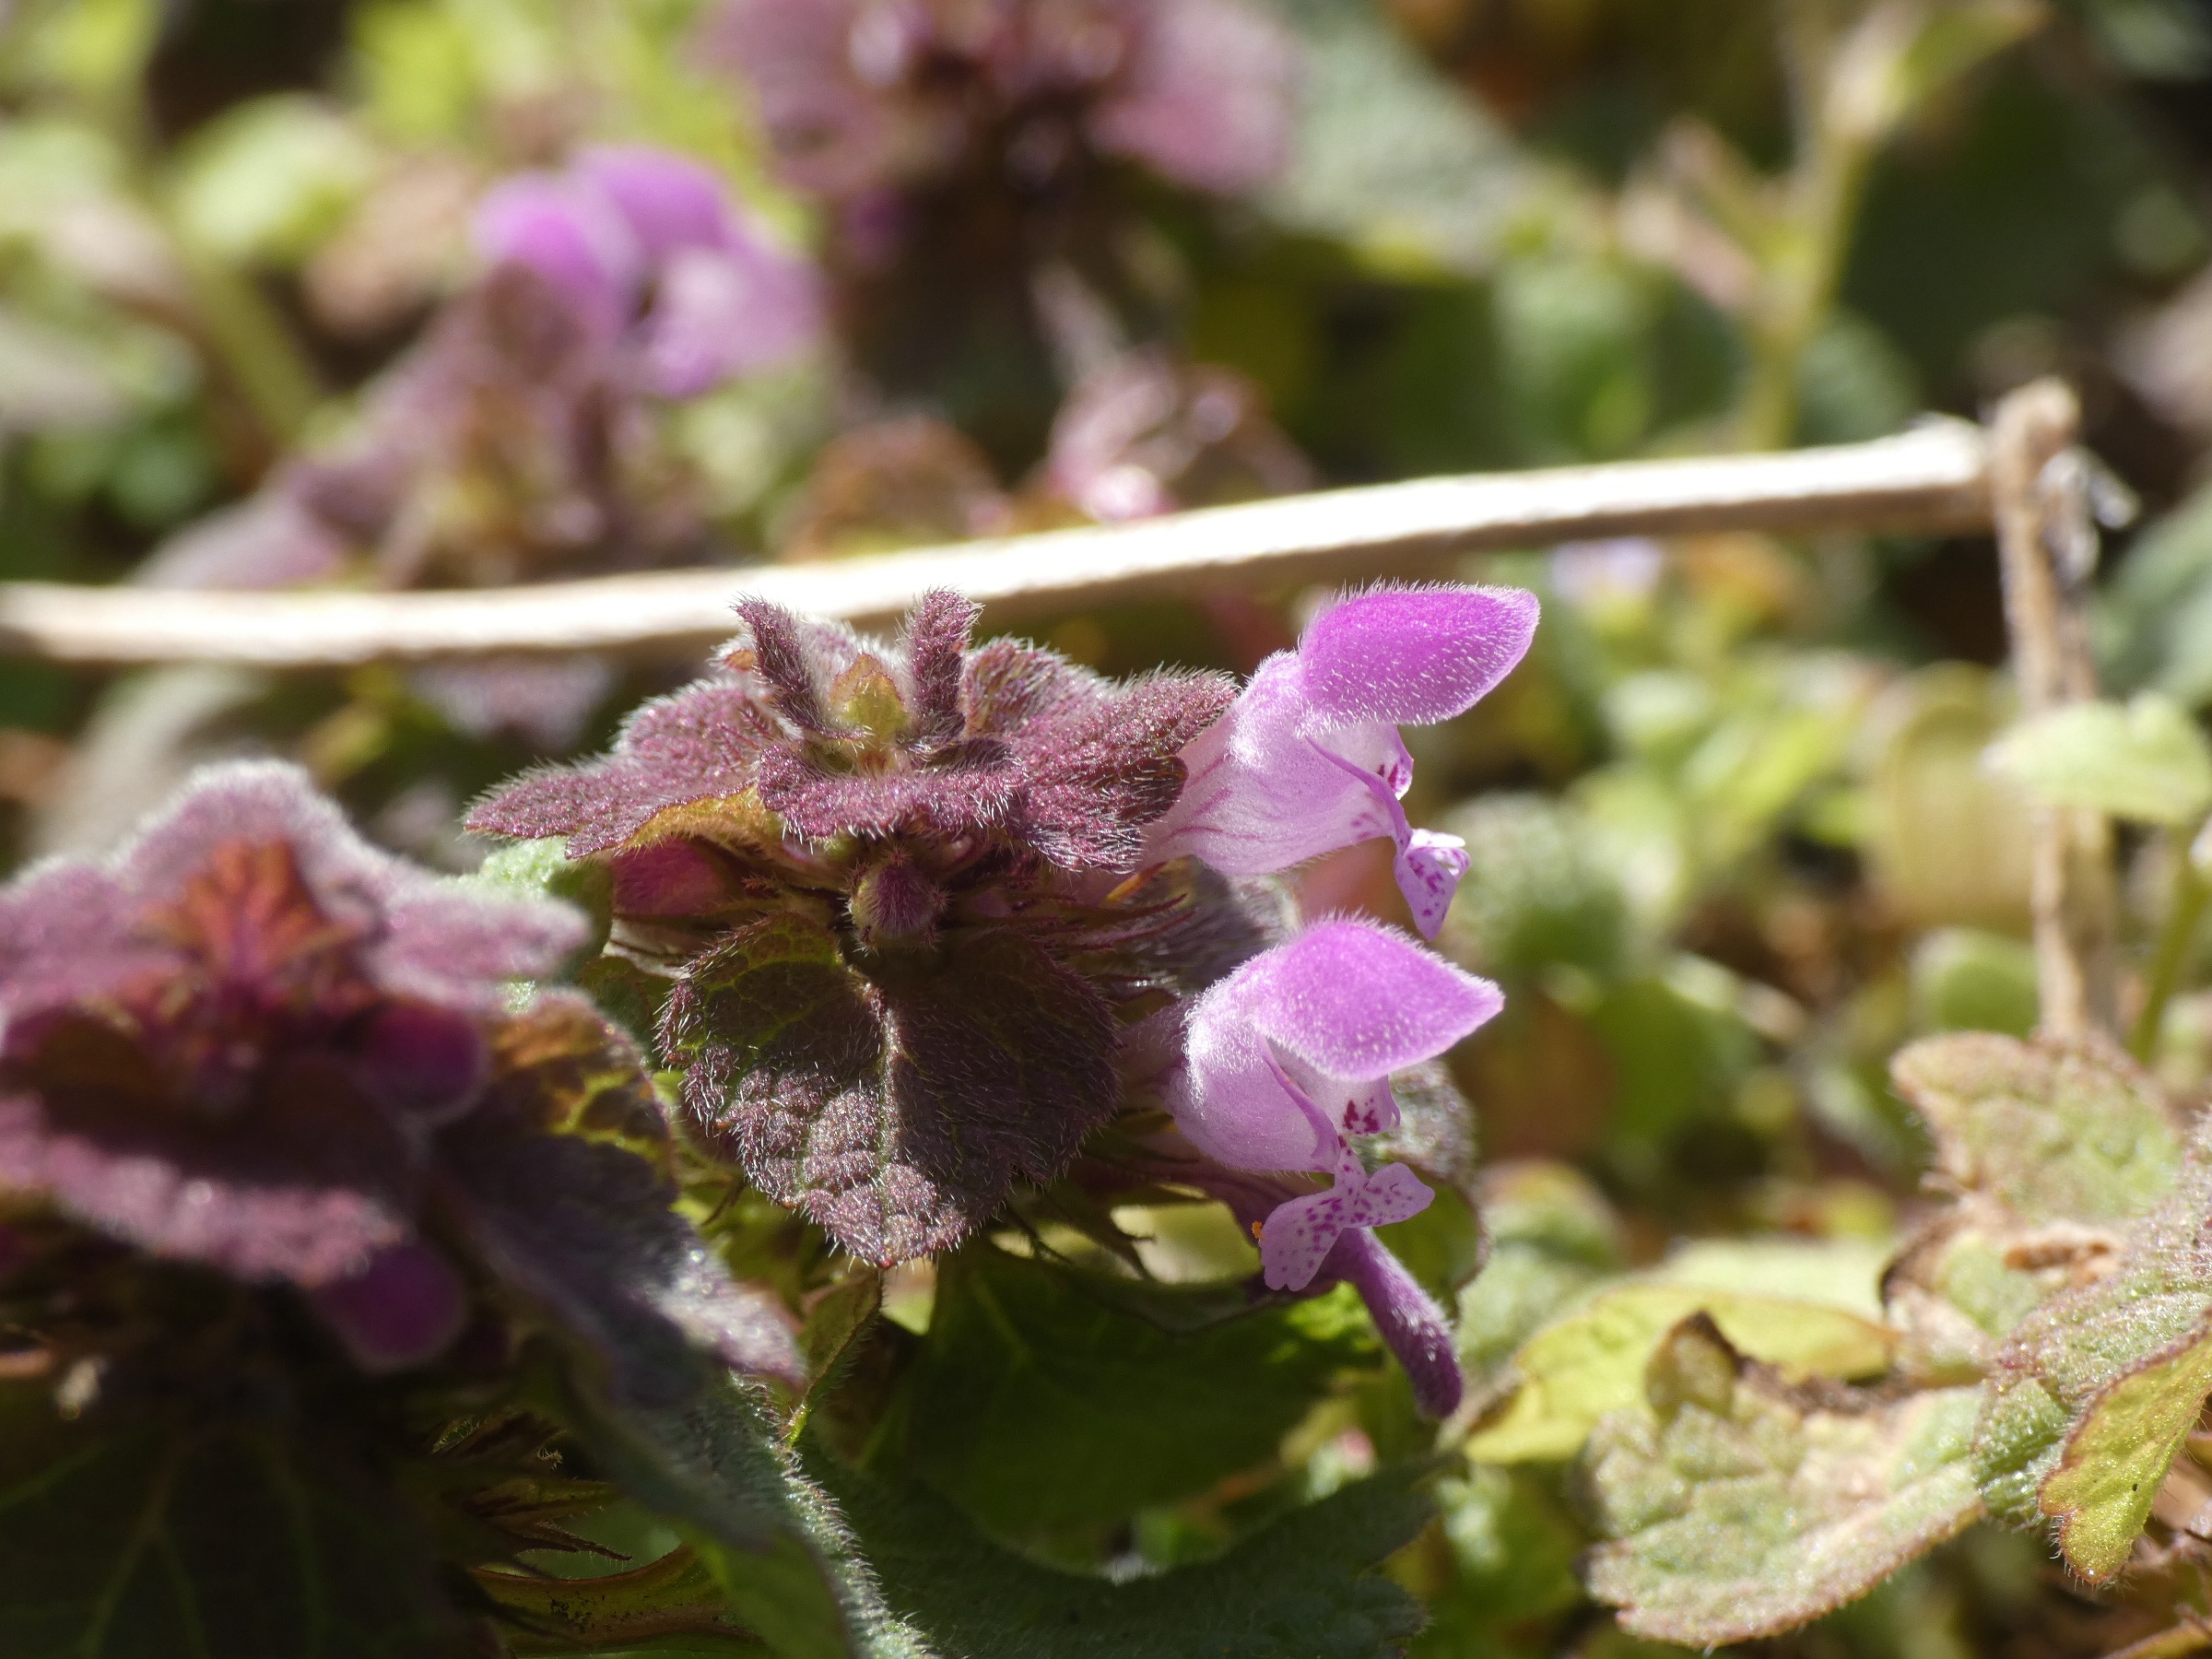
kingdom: Plantae
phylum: Tracheophyta
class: Magnoliopsida
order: Lamiales
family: Lamiaceae
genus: Lamium
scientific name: Lamium purpureum
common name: Rød tvetand
